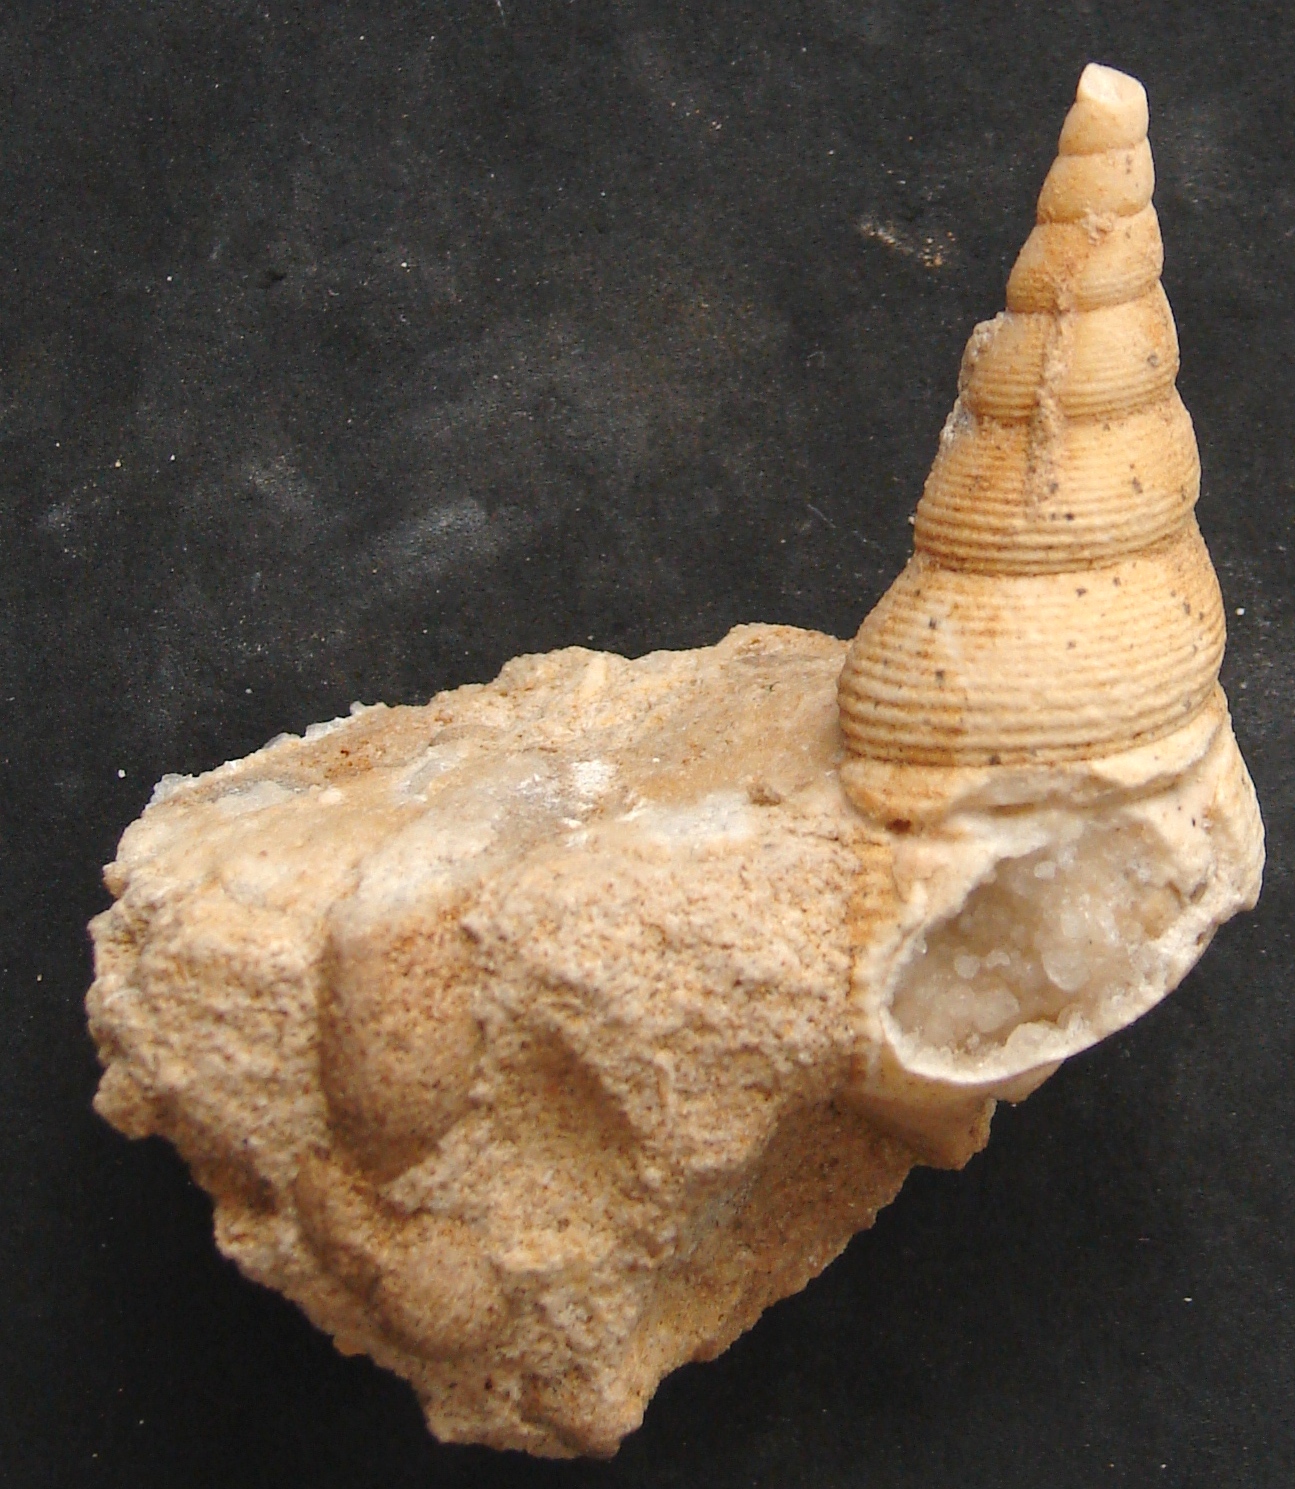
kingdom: Animalia
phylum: Mollusca
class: Gastropoda
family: Pseudomelaniidae
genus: Bourgetia
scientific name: Bourgetia Turritella deshayesea
